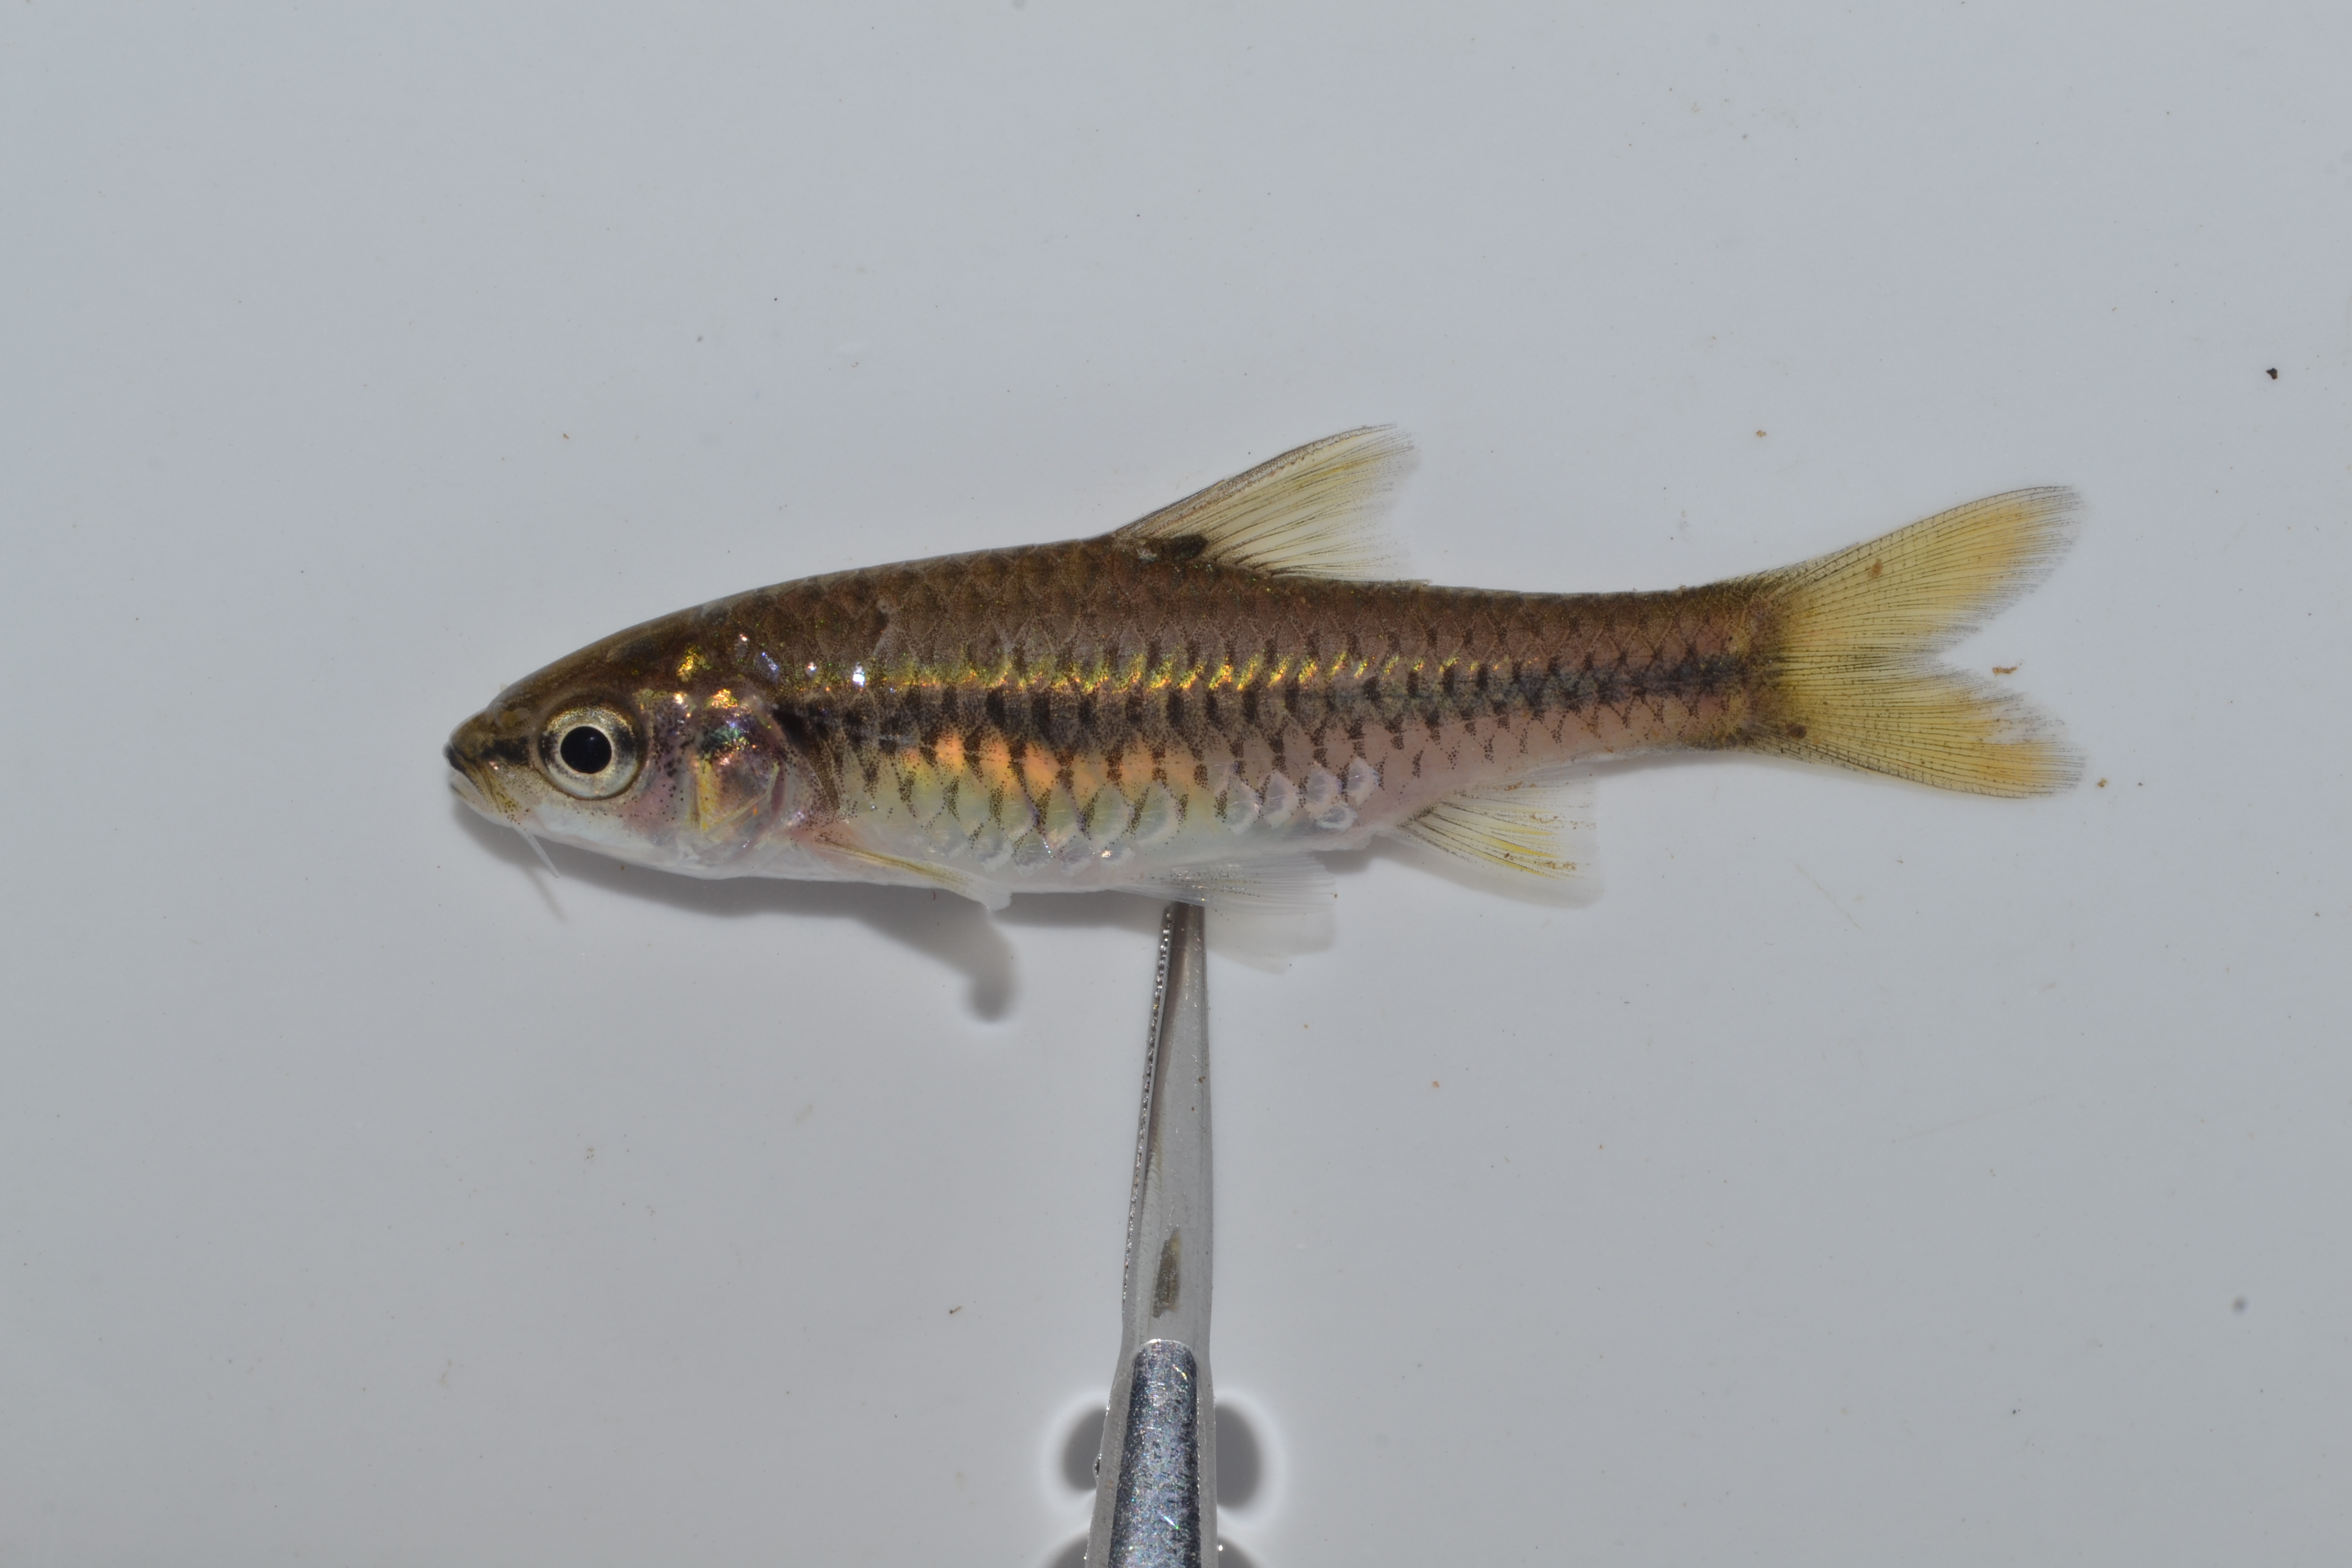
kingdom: Animalia
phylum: Chordata
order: Cypriniformes
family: Cyprinidae
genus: Enteromius
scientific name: Enteromius
